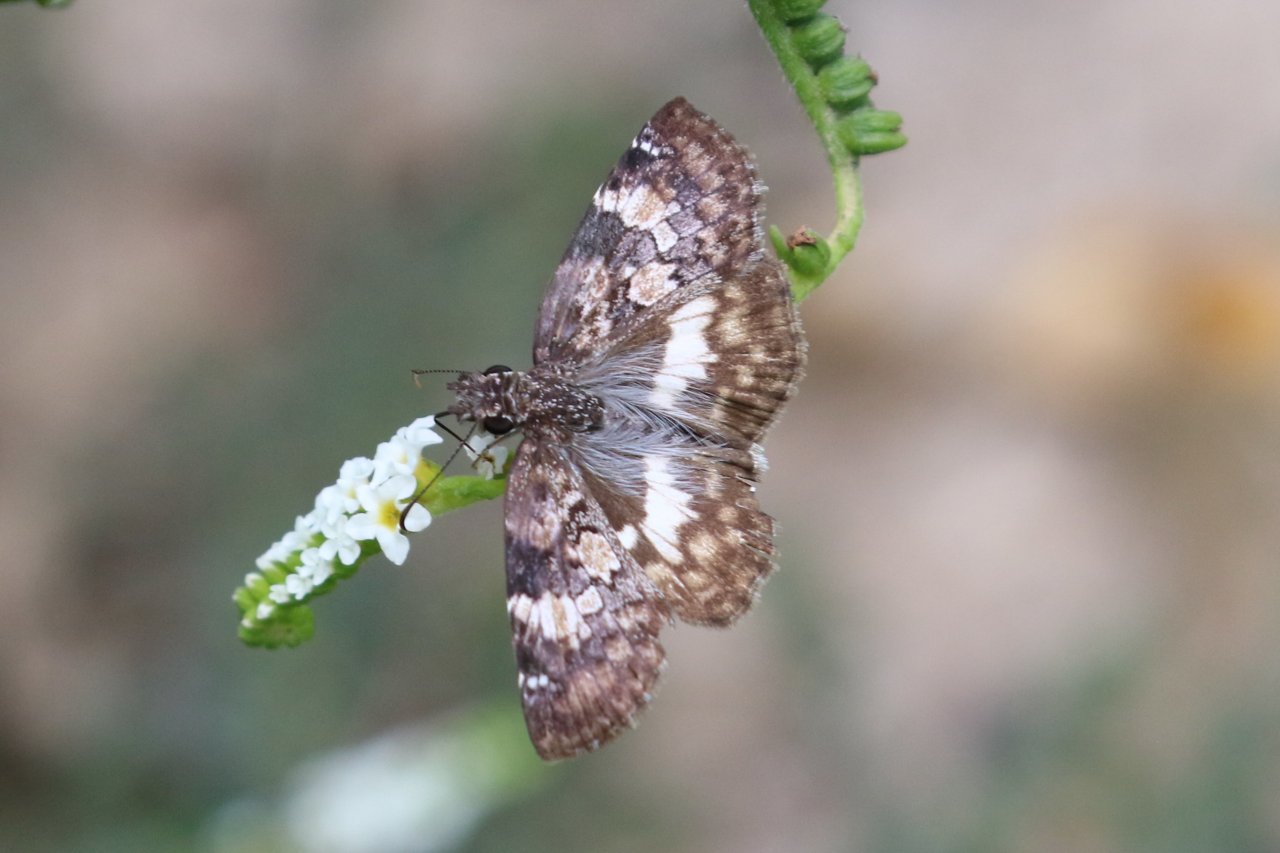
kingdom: Animalia
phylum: Arthropoda
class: Insecta
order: Lepidoptera
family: Hesperiidae
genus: Chiomara
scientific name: Chiomara asychis
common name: White-patched Skipper
